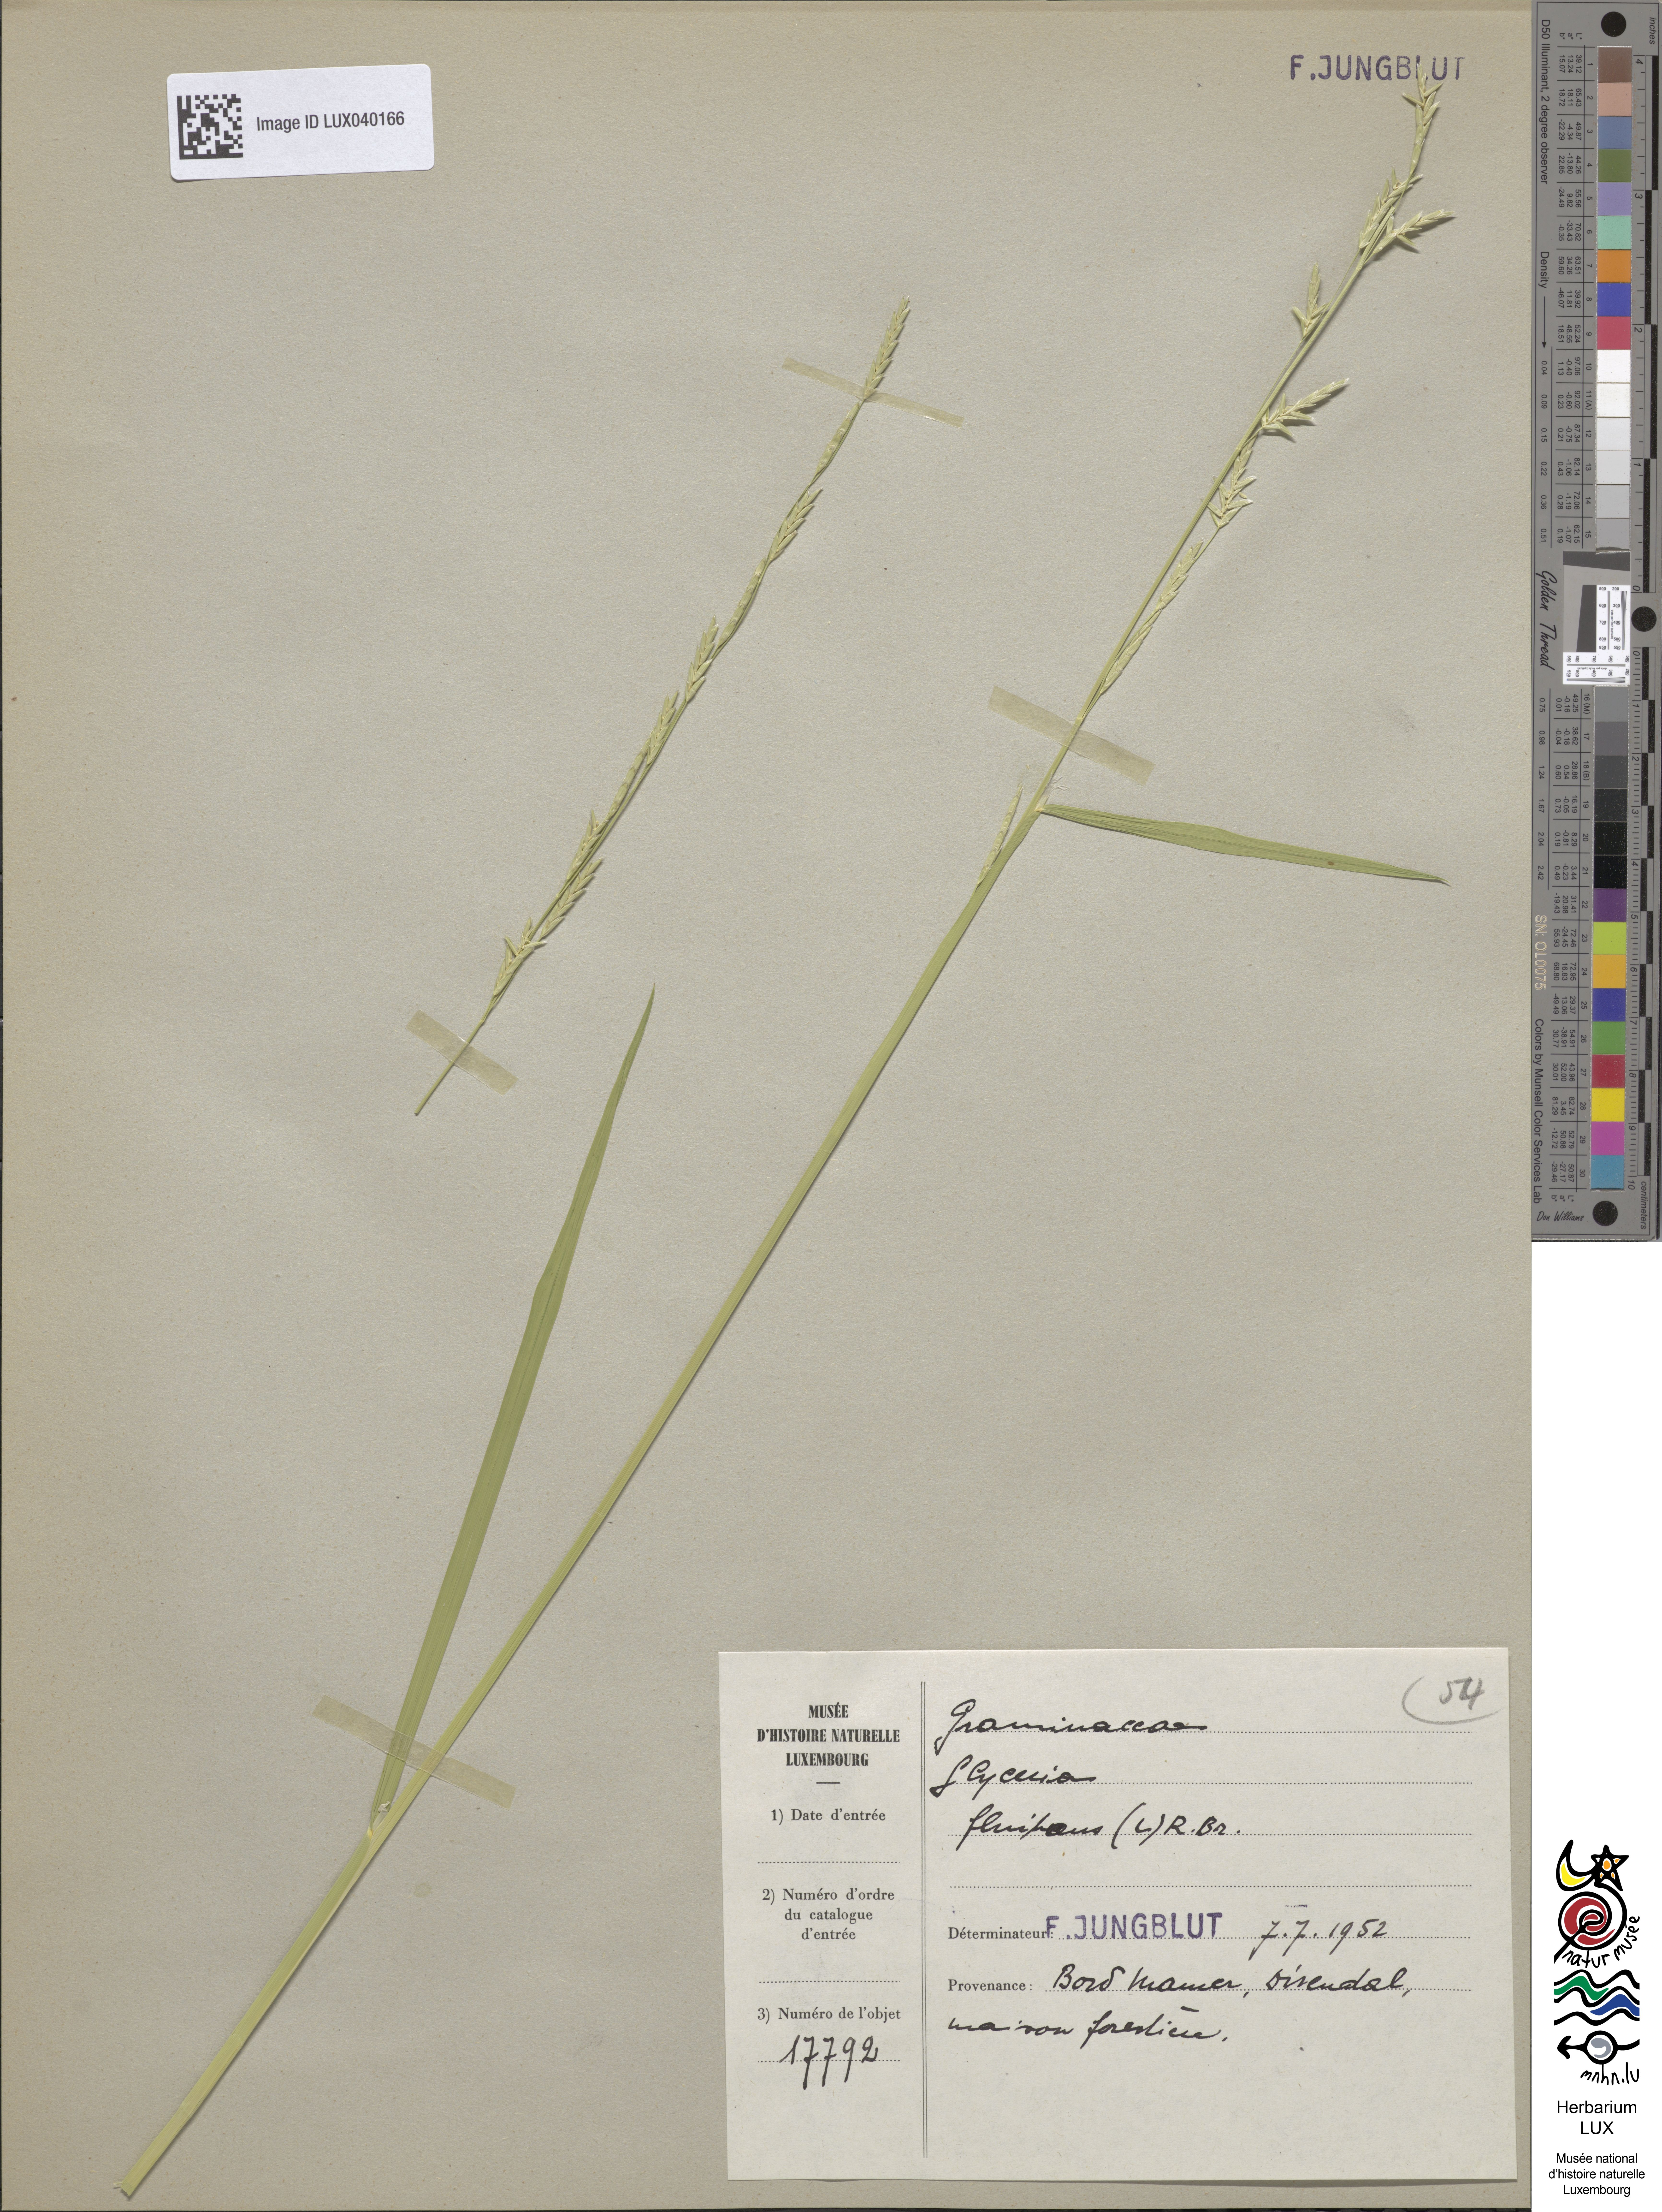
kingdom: Plantae
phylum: Tracheophyta
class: Liliopsida
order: Poales
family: Poaceae
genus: Glyceria
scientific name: Glyceria fluitans
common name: Floating sweet-grass
